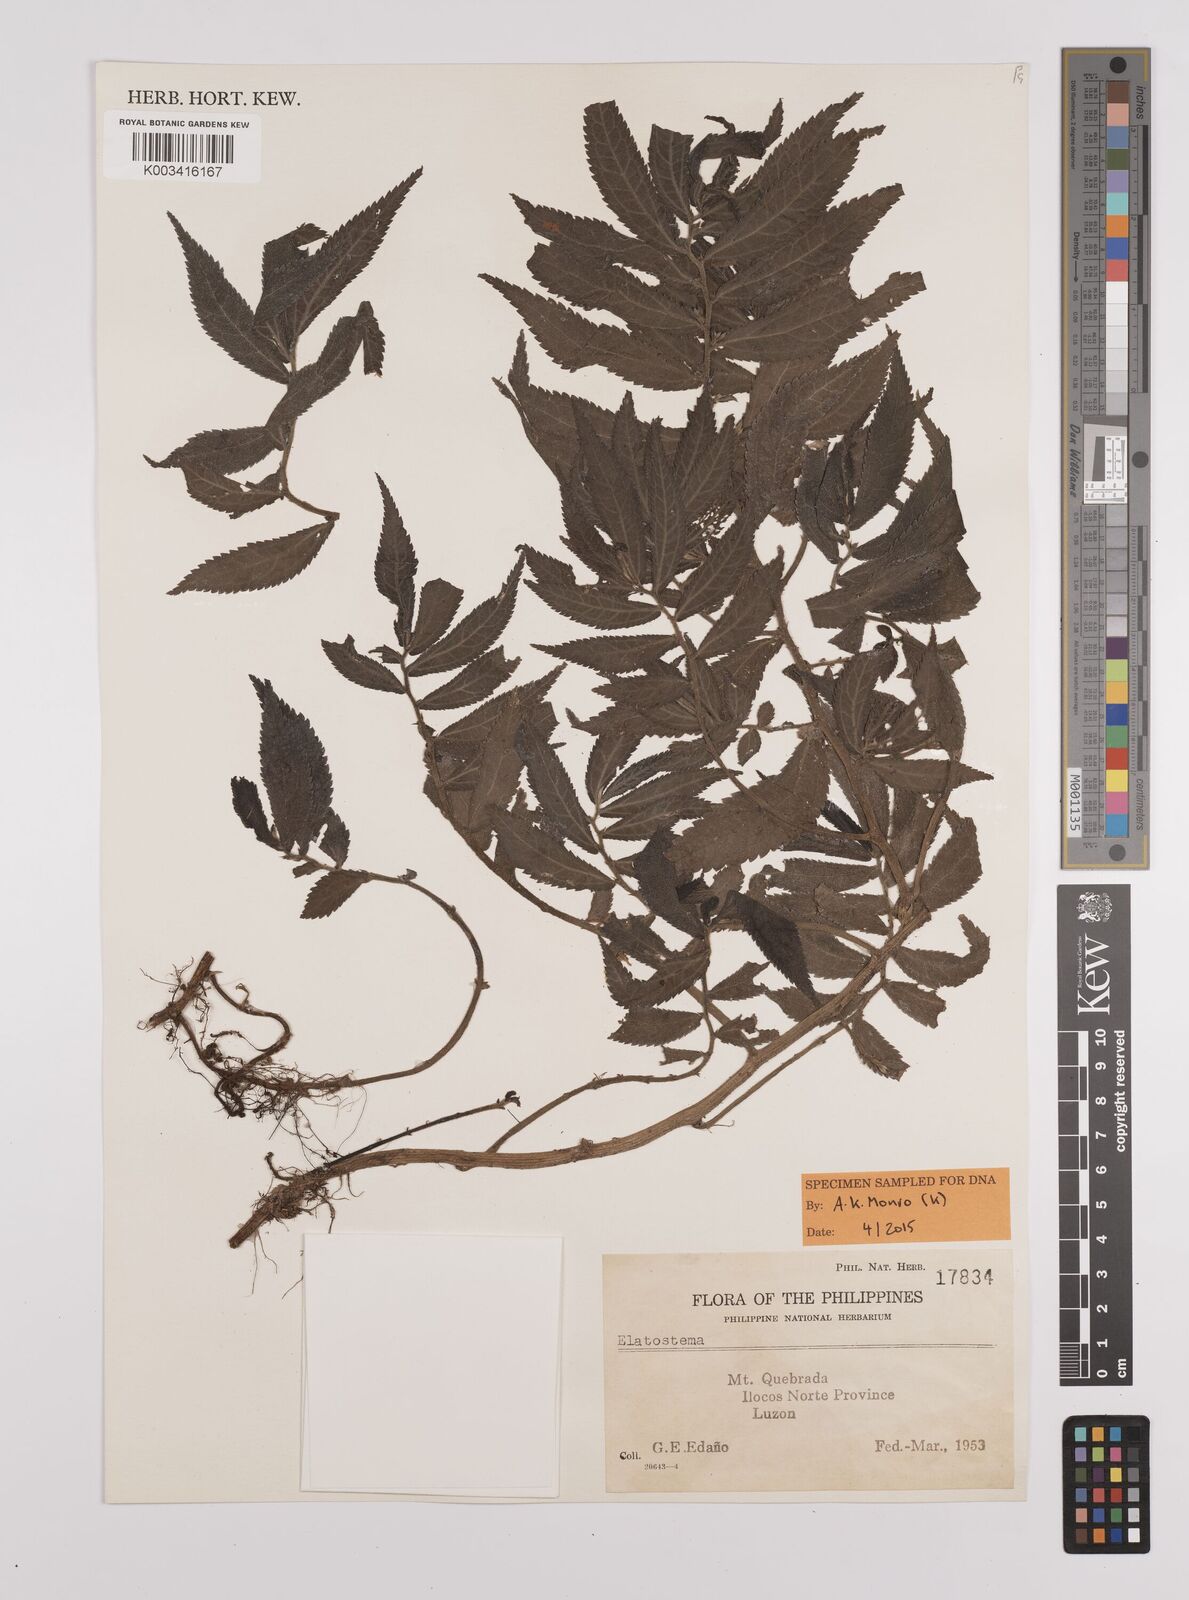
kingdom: Plantae
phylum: Tracheophyta
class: Magnoliopsida
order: Rosales
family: Urticaceae
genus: Elatostema
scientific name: Elatostema
